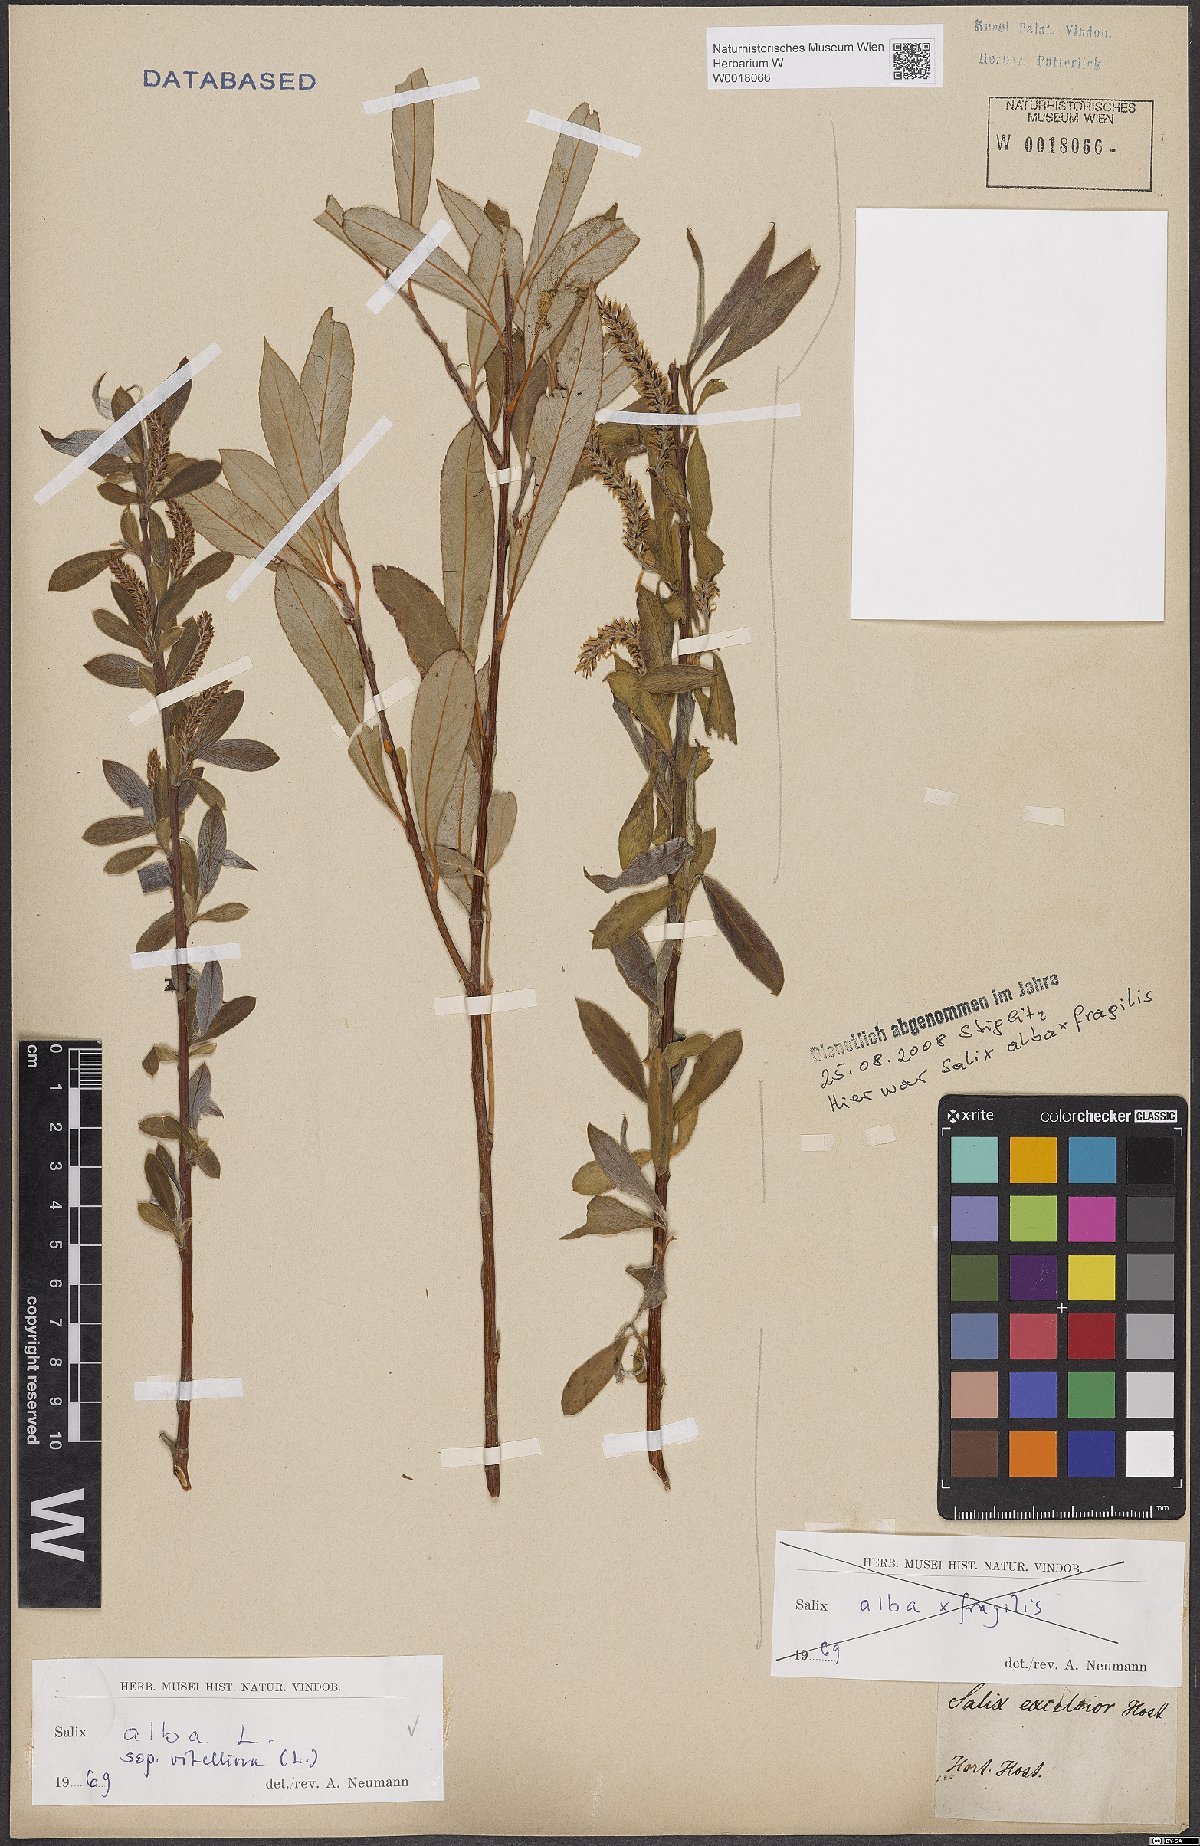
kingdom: Plantae
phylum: Tracheophyta
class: Magnoliopsida
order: Malpighiales
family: Salicaceae
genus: Salix
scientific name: Salix alba
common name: White willow
